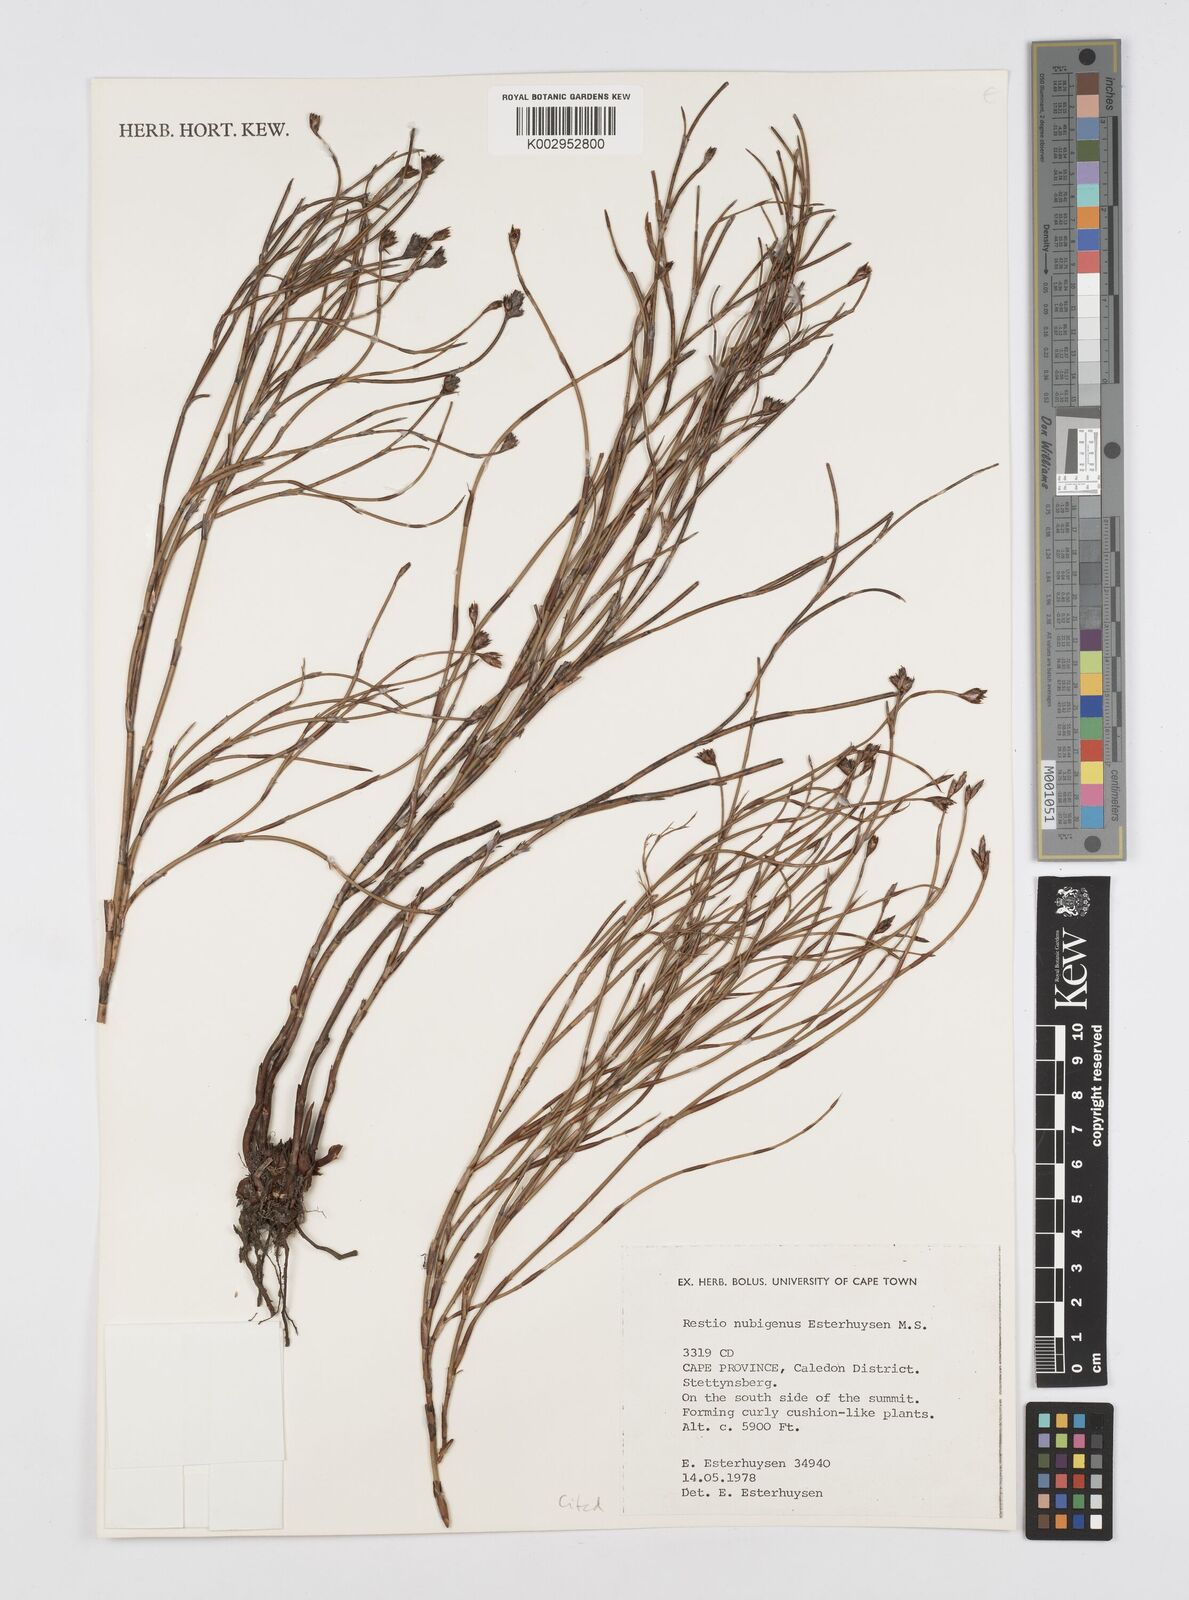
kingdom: Plantae
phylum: Tracheophyta
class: Liliopsida
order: Poales
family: Restionaceae
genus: Restio
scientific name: Restio nubigenus
